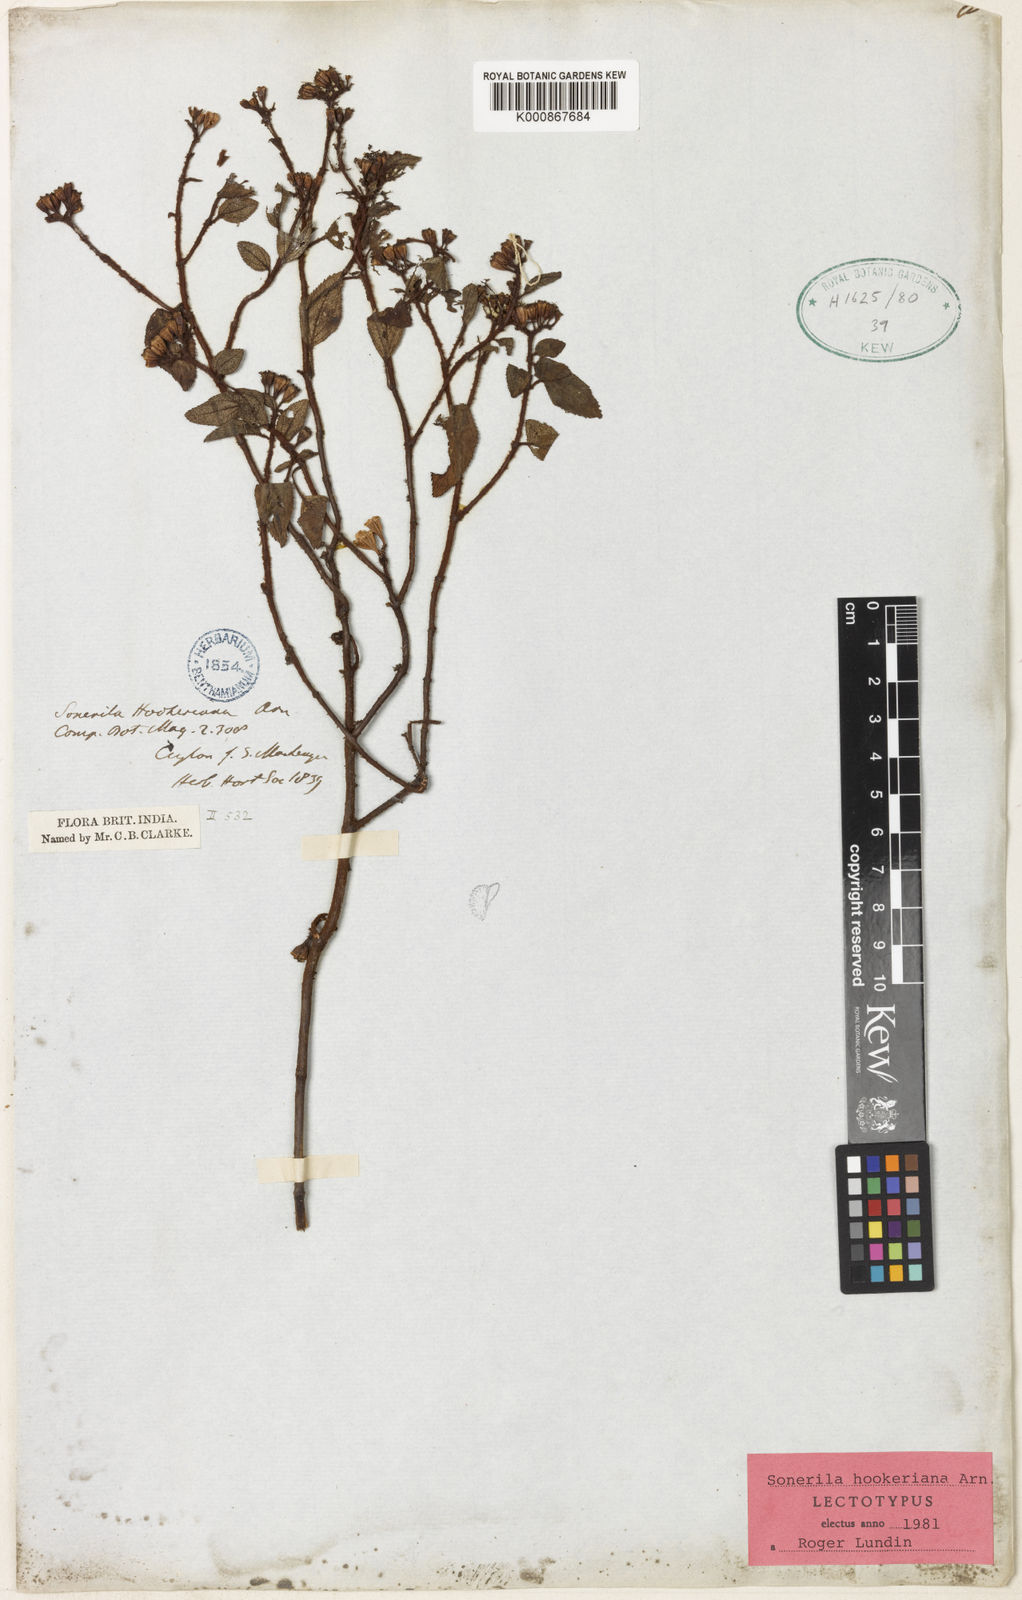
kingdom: Plantae
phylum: Tracheophyta
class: Magnoliopsida
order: Myrtales
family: Melastomataceae
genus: Sonerila
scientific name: Sonerila hookeriana
